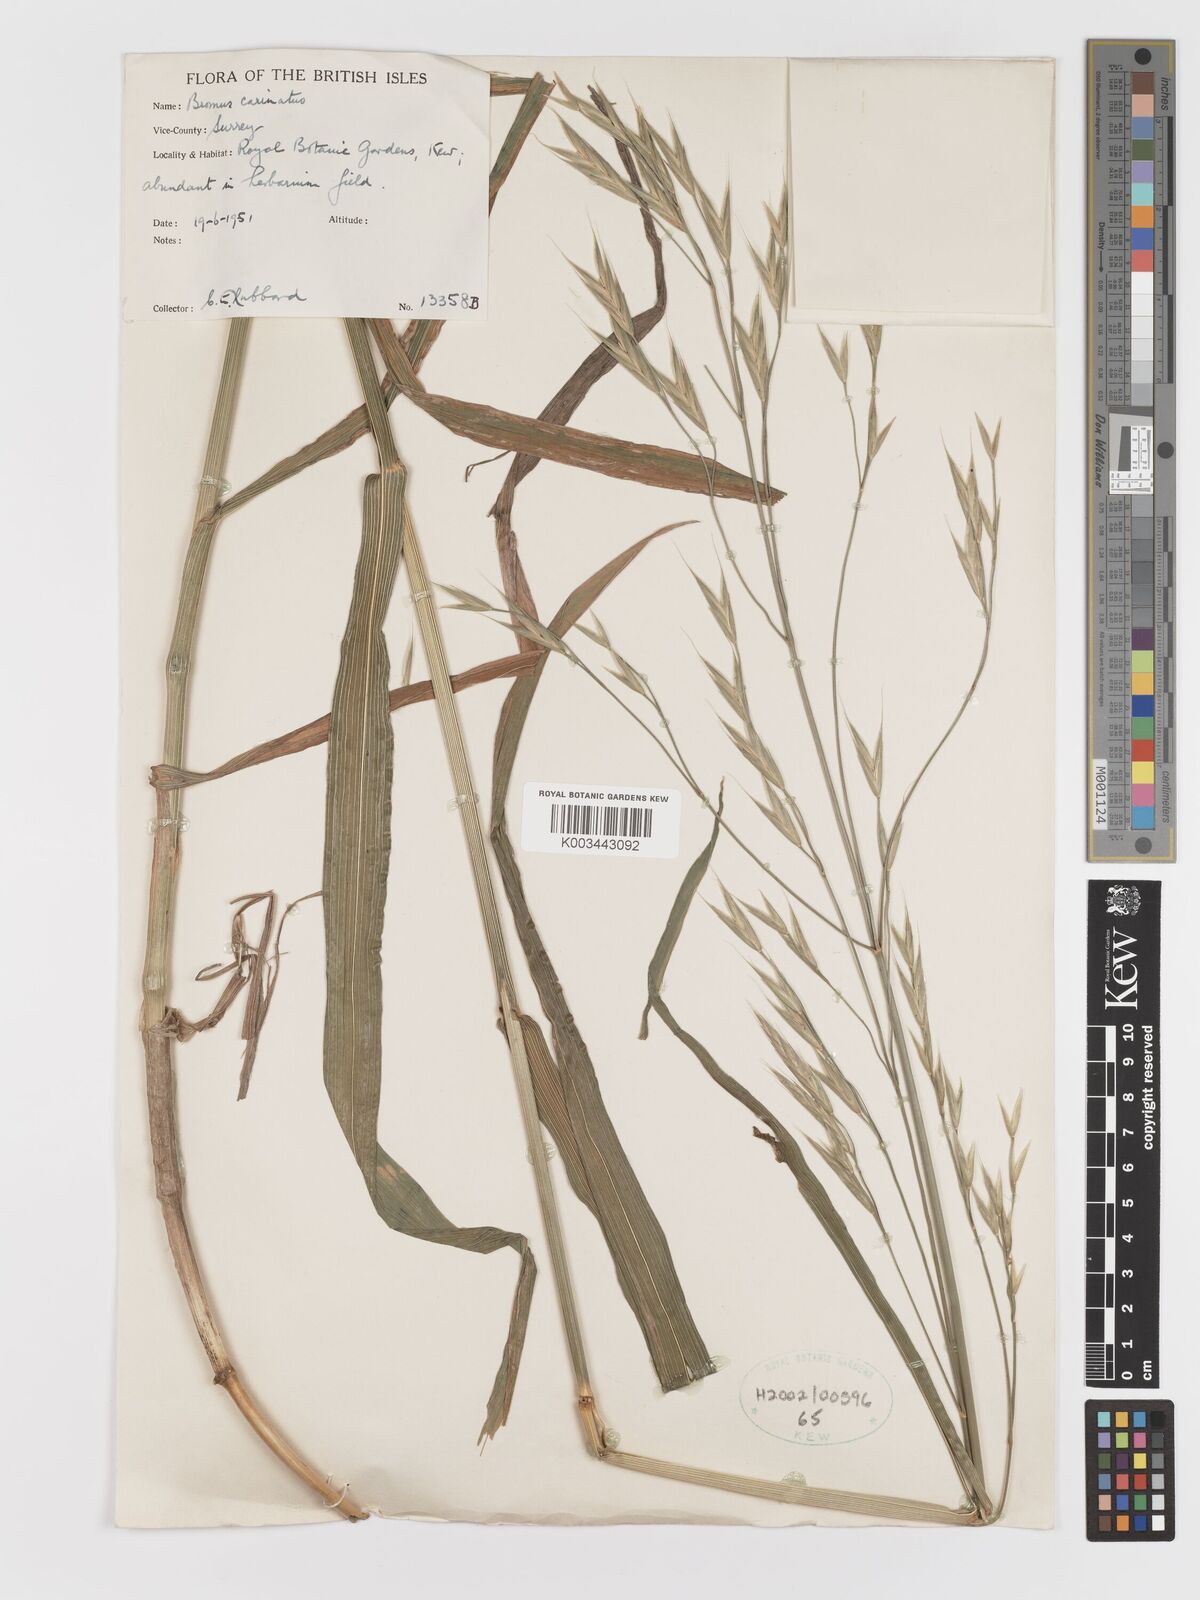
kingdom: Plantae
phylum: Tracheophyta
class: Liliopsida
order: Poales
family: Poaceae
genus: Bromus
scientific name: Bromus carinatus
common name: Mountain brome
